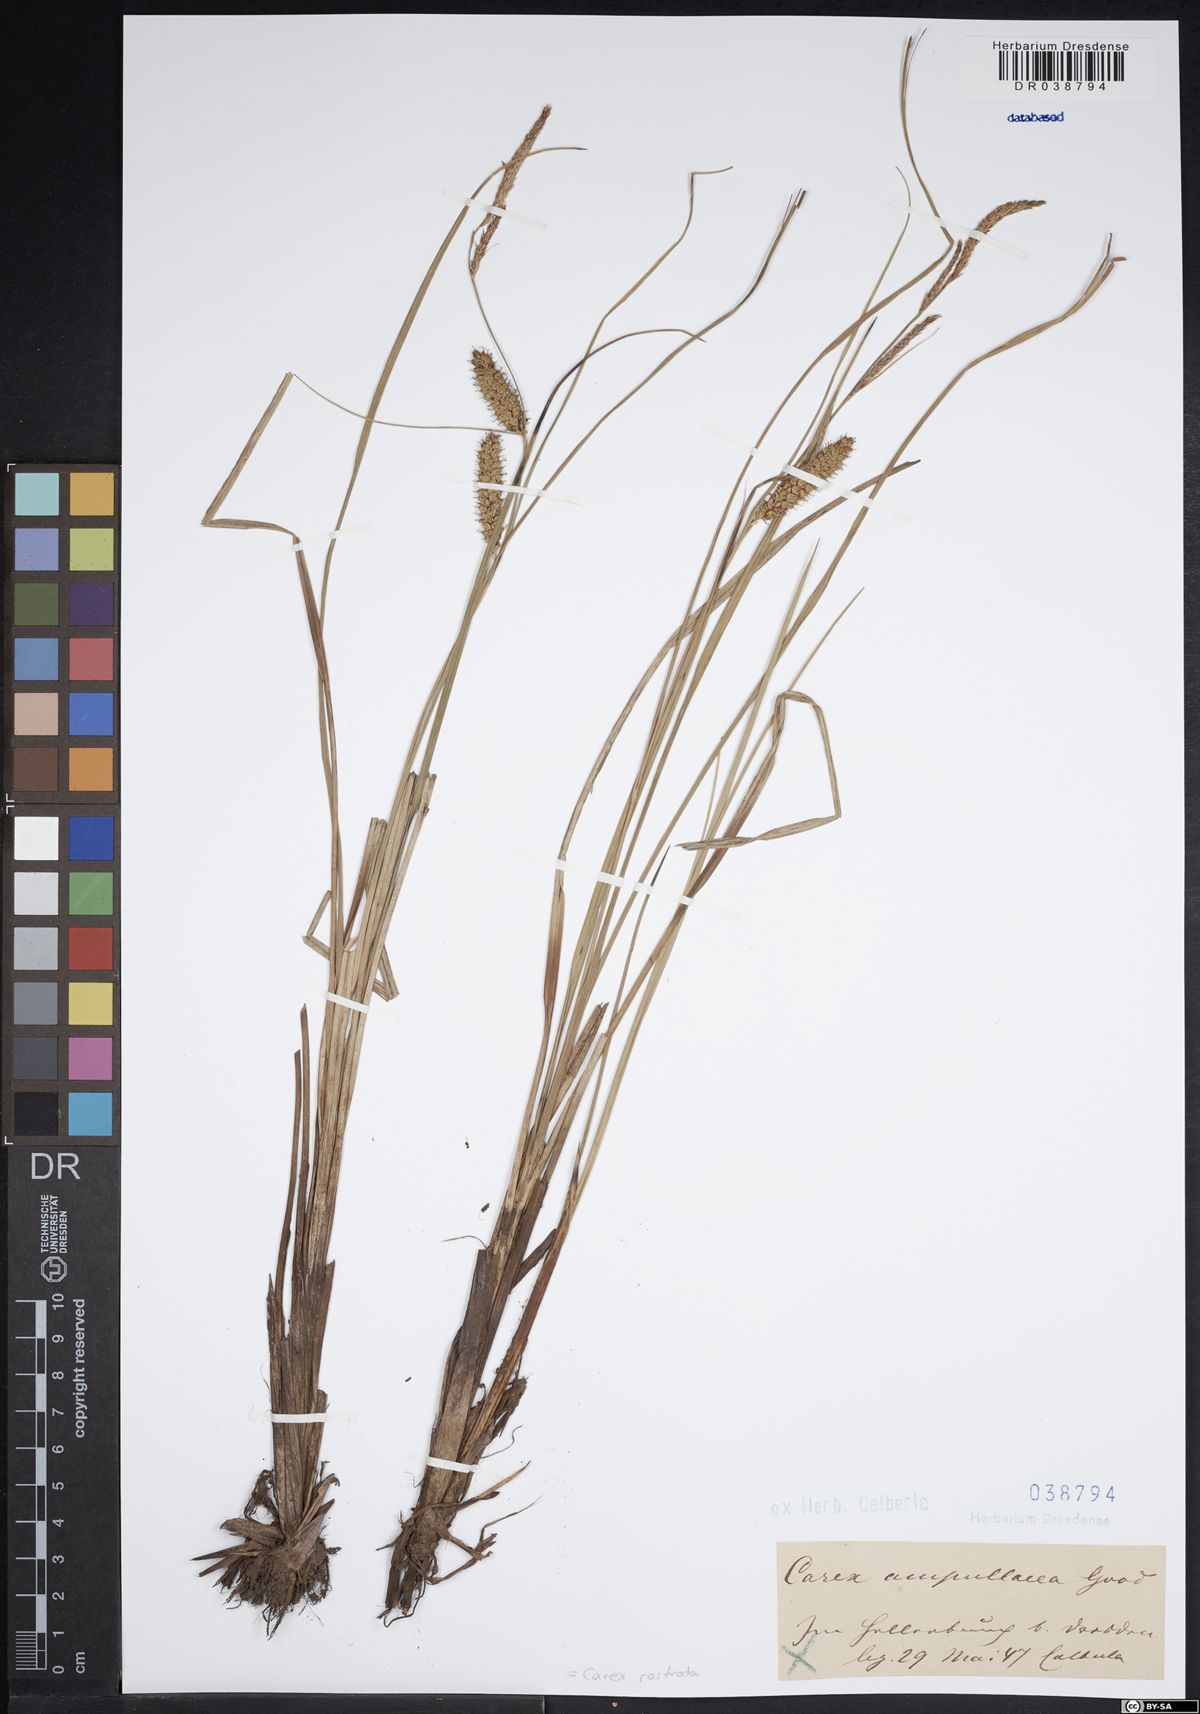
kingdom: Plantae
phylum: Tracheophyta
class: Liliopsida
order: Poales
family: Cyperaceae
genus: Carex
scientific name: Carex rostrata
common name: Bottle sedge
